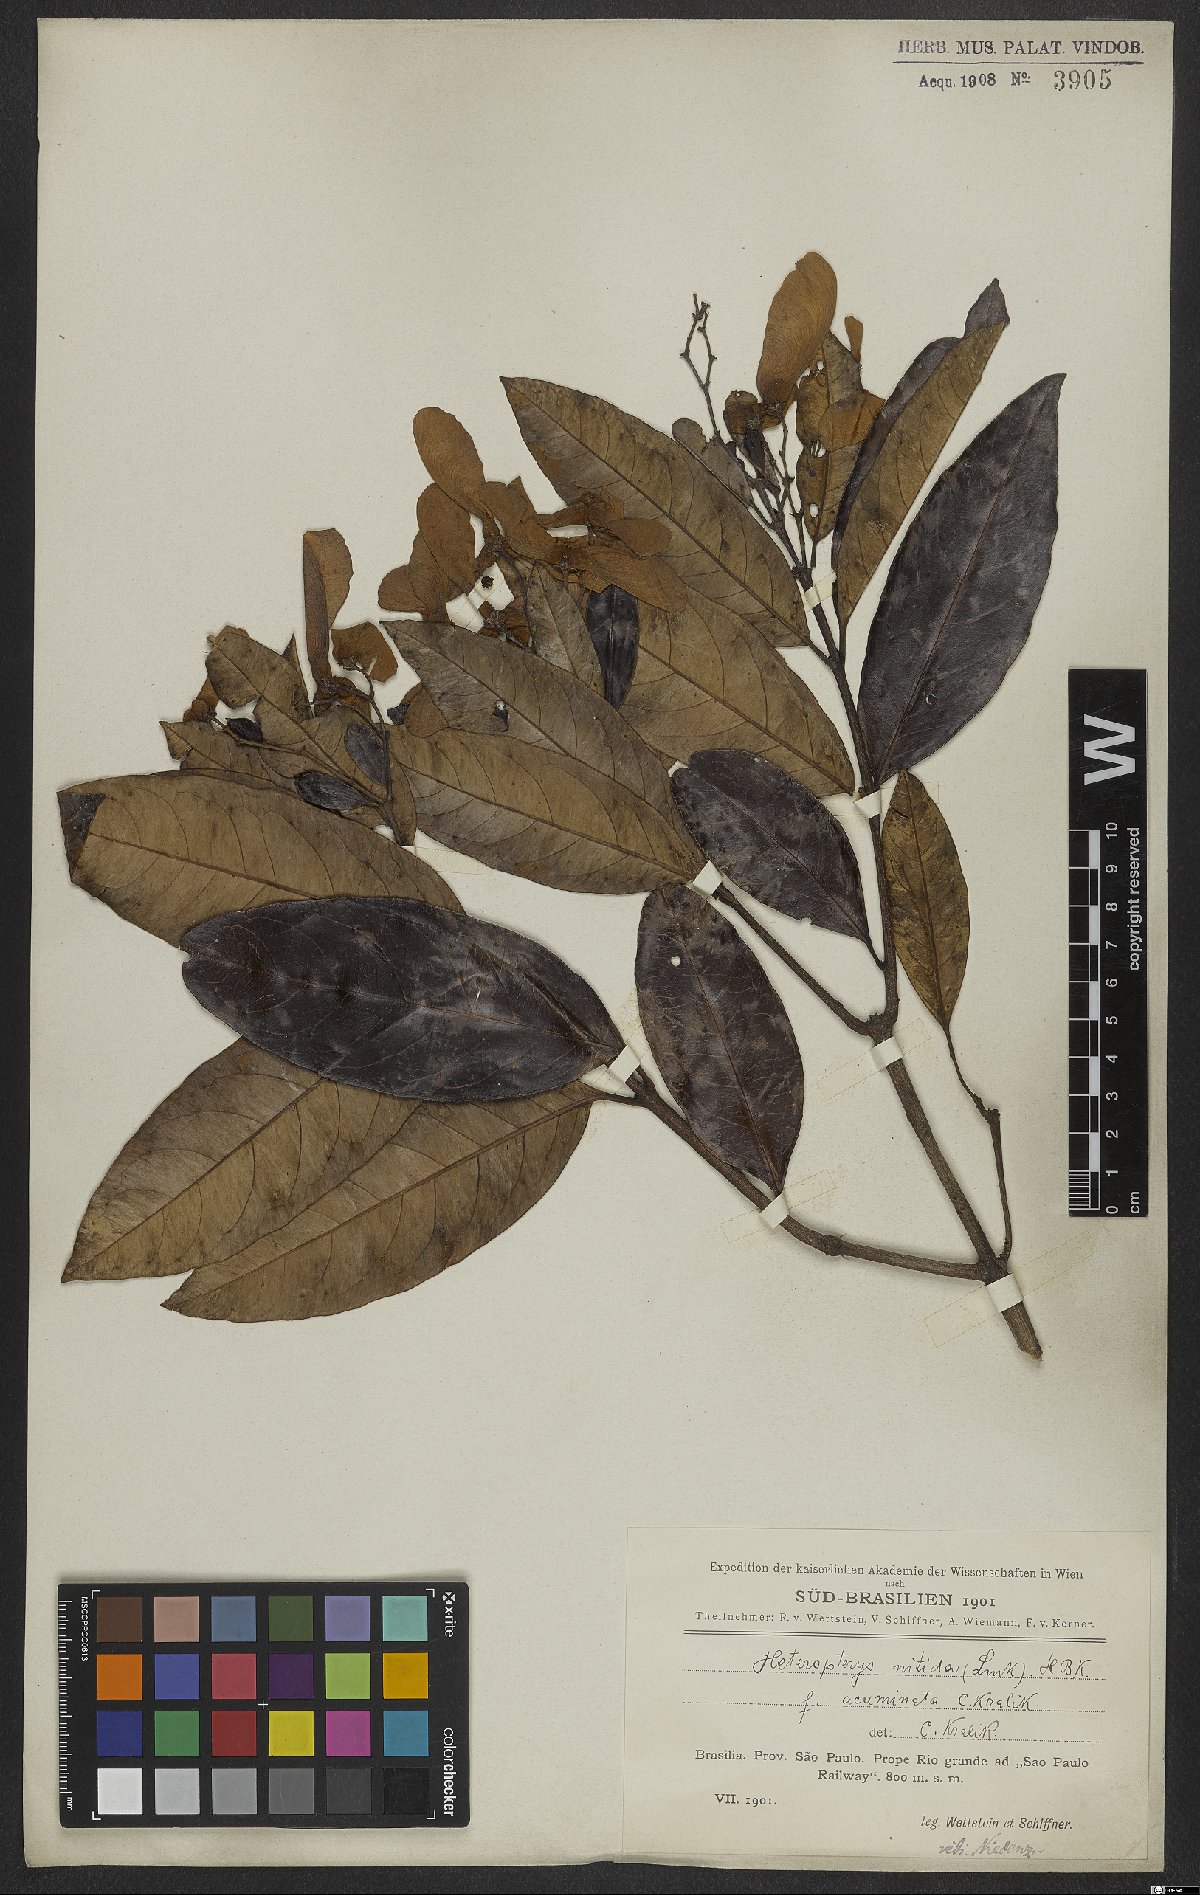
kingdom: Plantae
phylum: Tracheophyta
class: Magnoliopsida
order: Malpighiales
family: Malpighiaceae
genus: Heteropterys
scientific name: Heteropterys nitida
